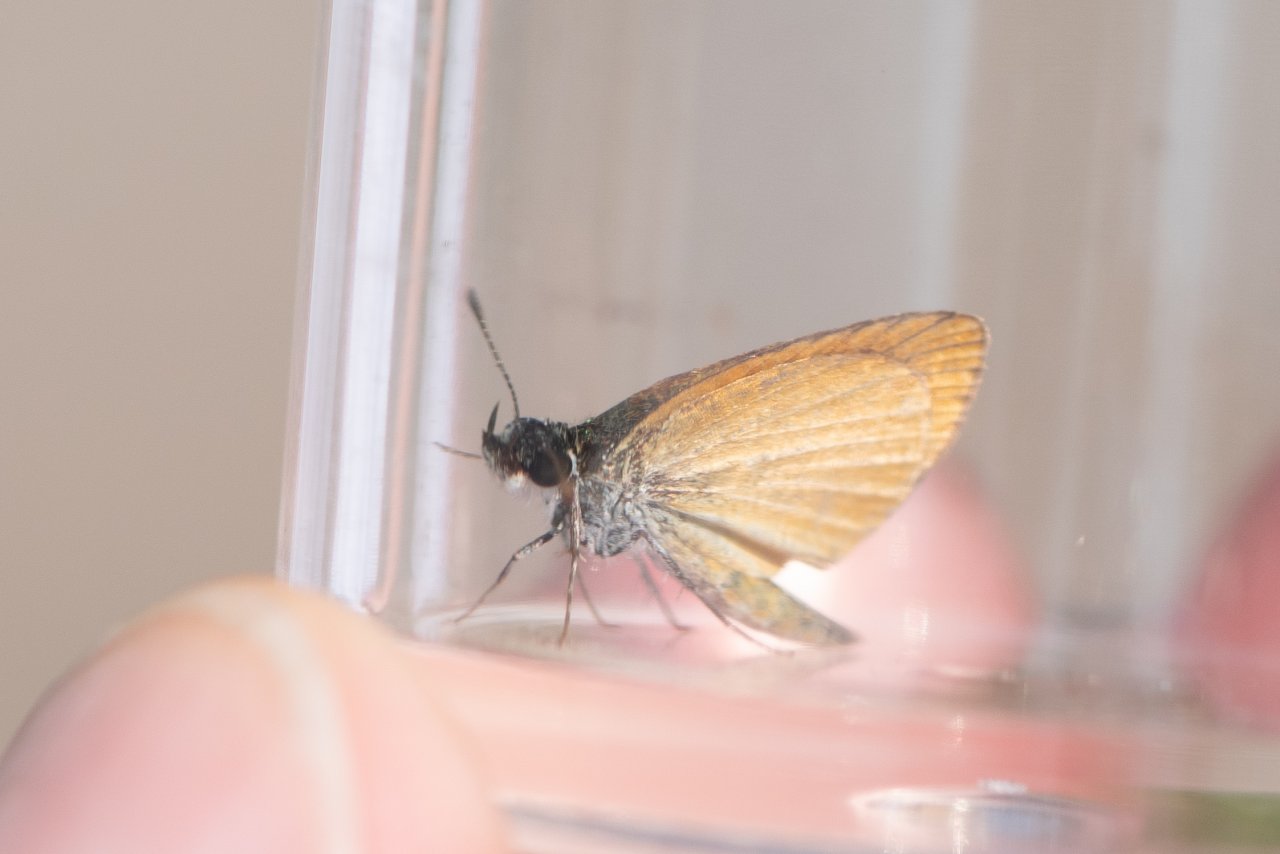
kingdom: Animalia
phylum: Arthropoda
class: Insecta
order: Lepidoptera
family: Hesperiidae
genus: Ancyloxypha
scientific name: Ancyloxypha numitor
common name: Least Skipper
